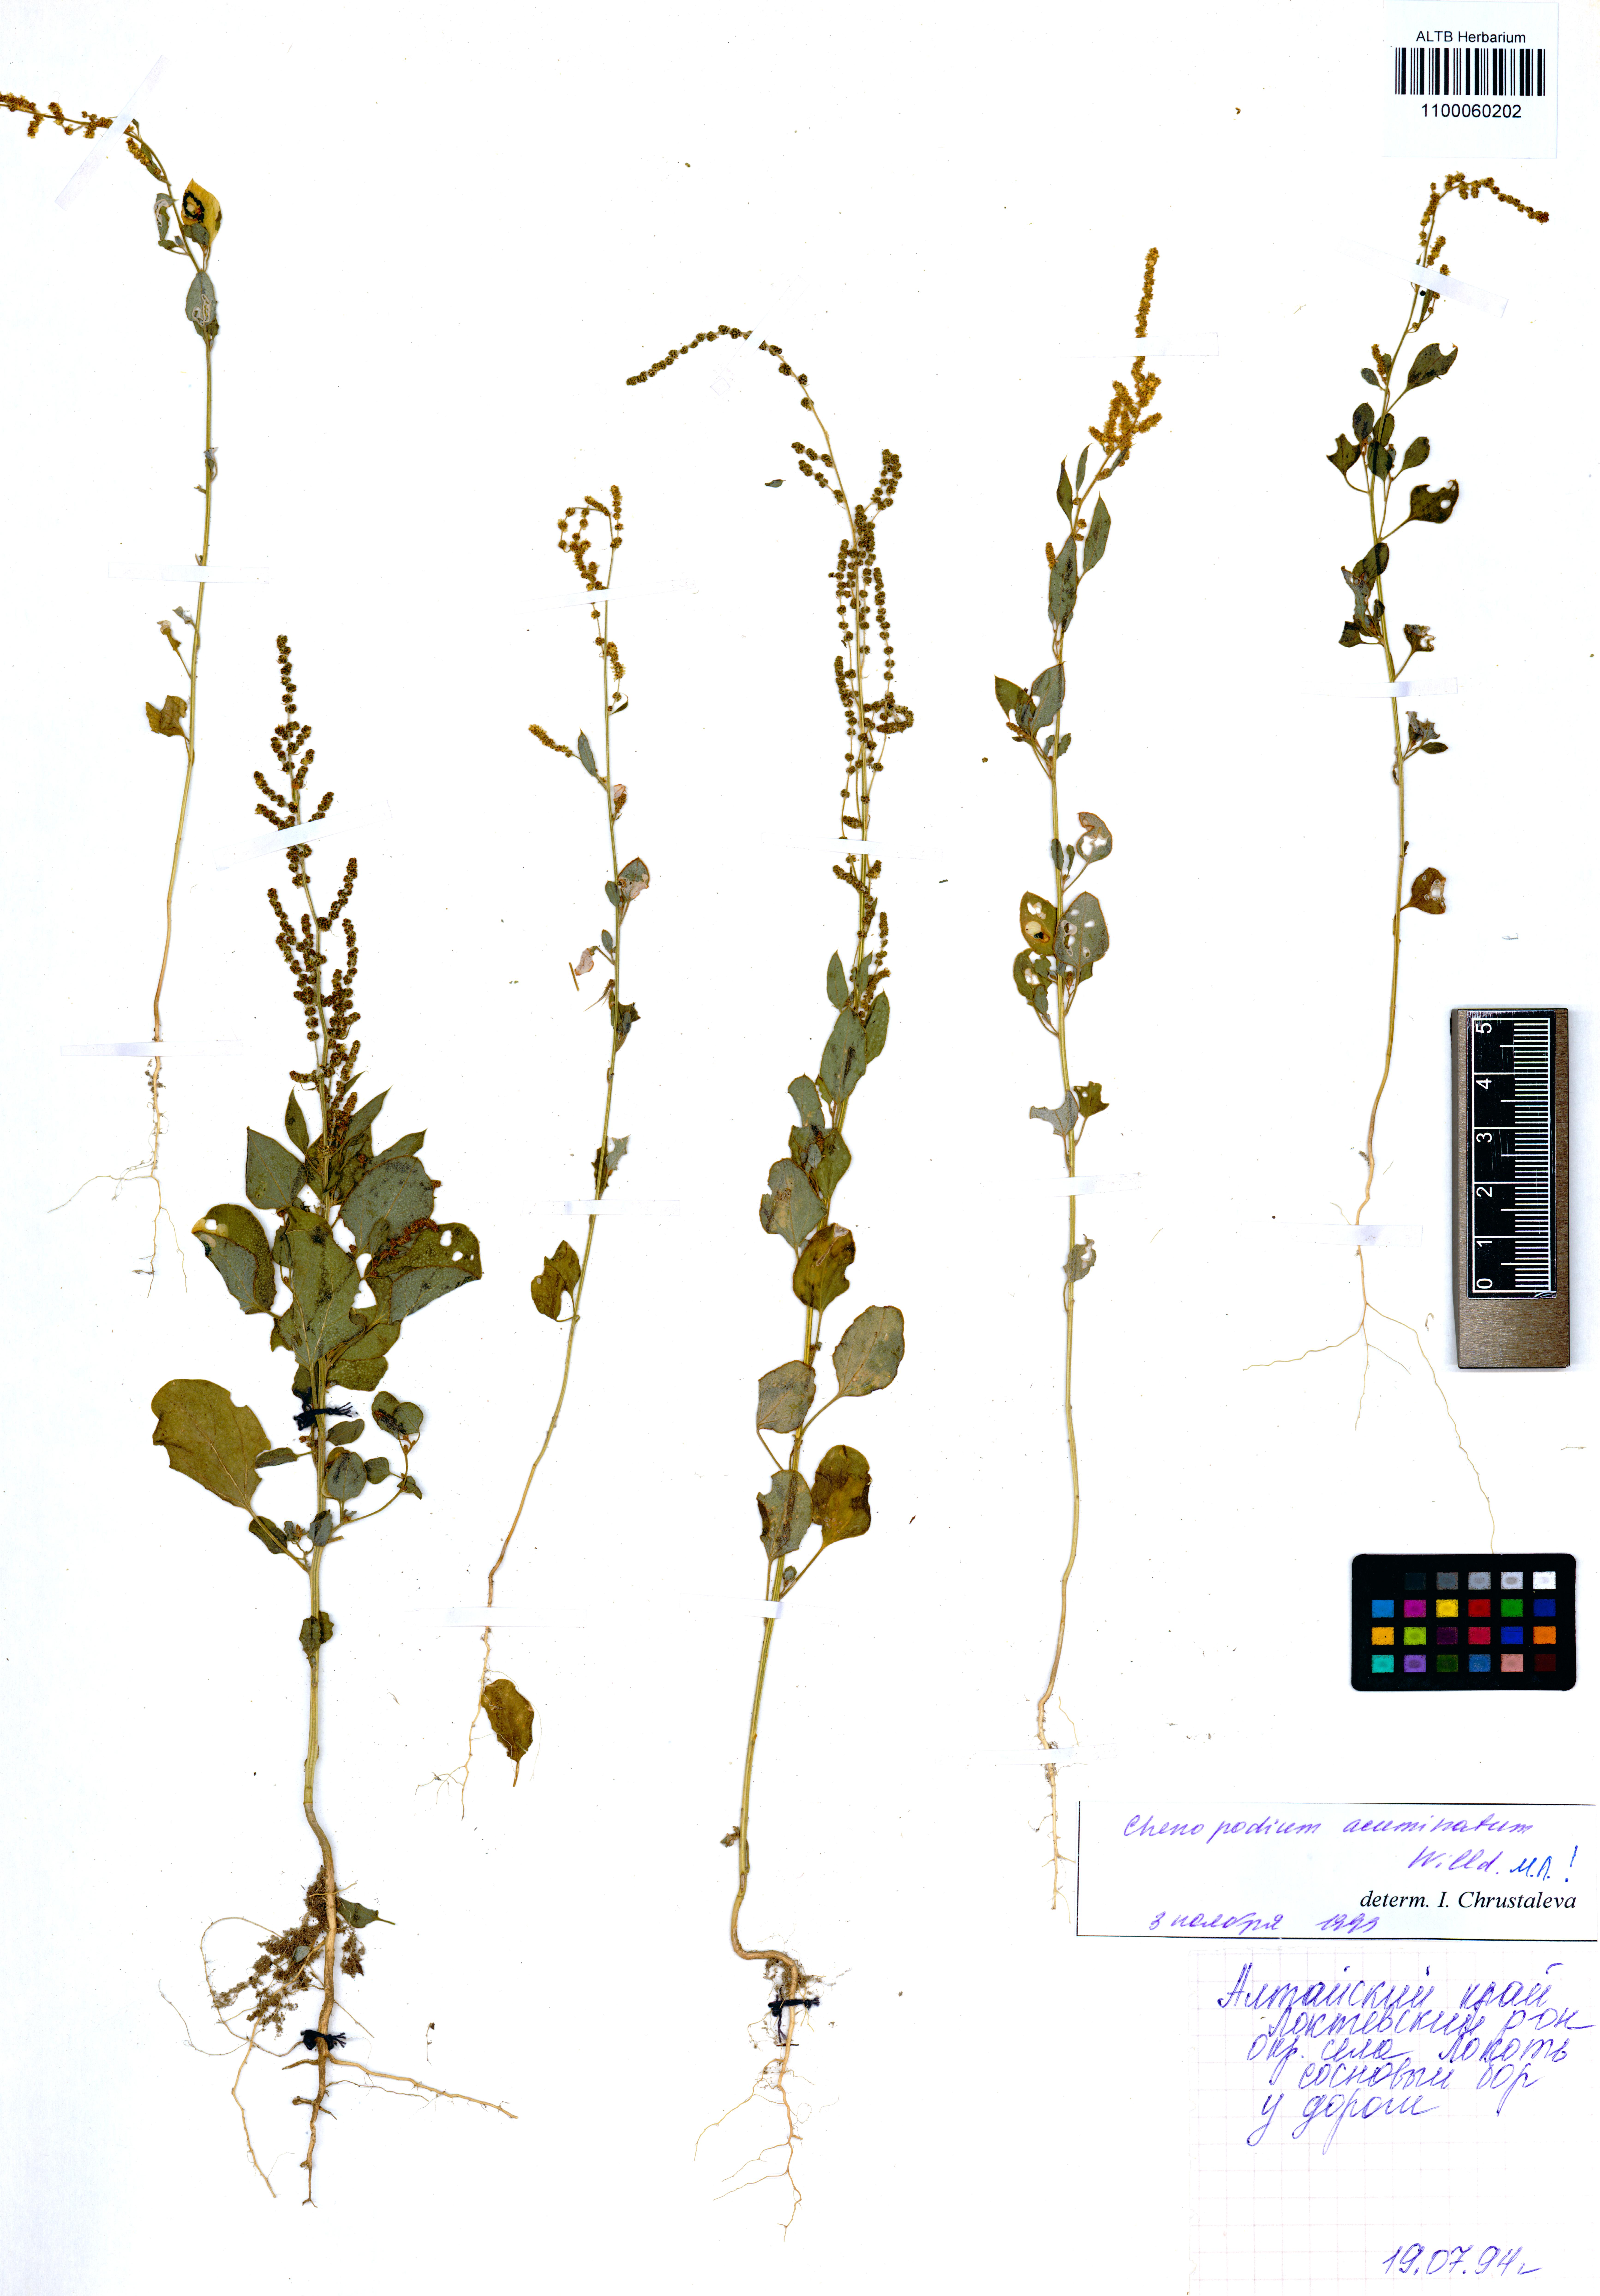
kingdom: Plantae
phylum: Tracheophyta
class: Magnoliopsida
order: Caryophyllales
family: Amaranthaceae
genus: Chenopodium
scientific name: Chenopodium acuminatum
